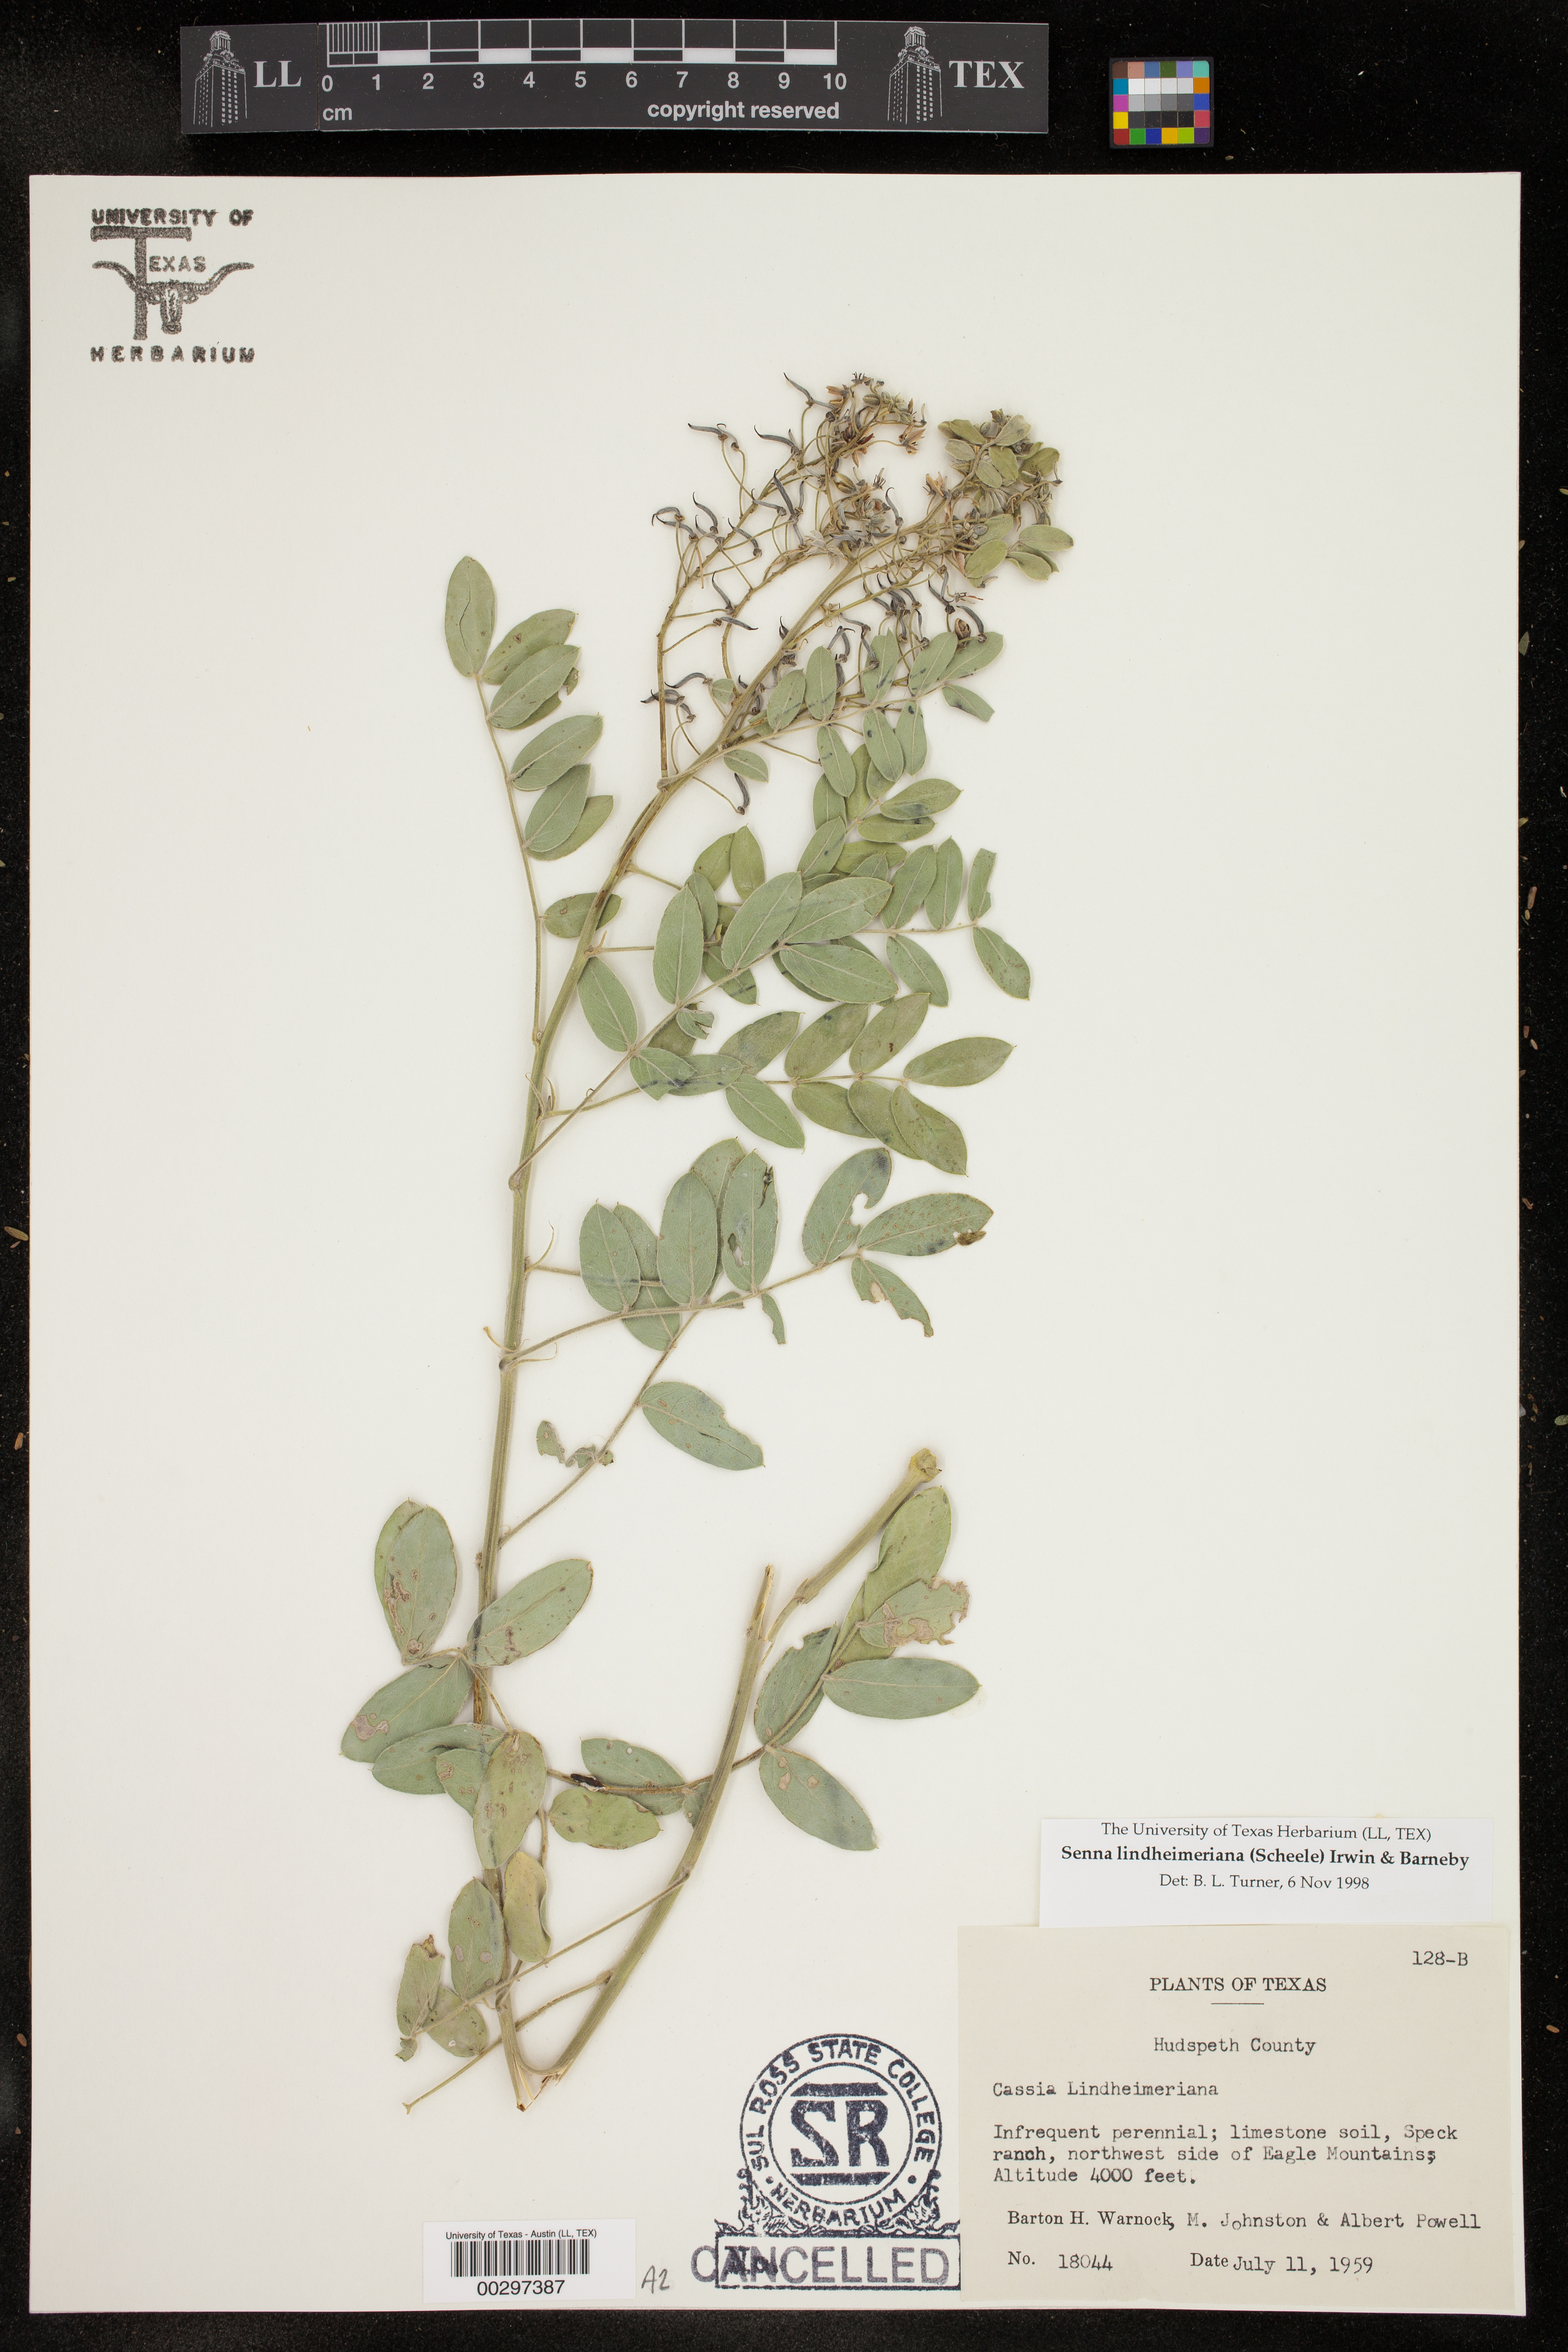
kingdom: Plantae
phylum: Tracheophyta
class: Magnoliopsida
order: Fabales
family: Fabaceae
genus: Senna
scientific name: Senna lindheimeriana
